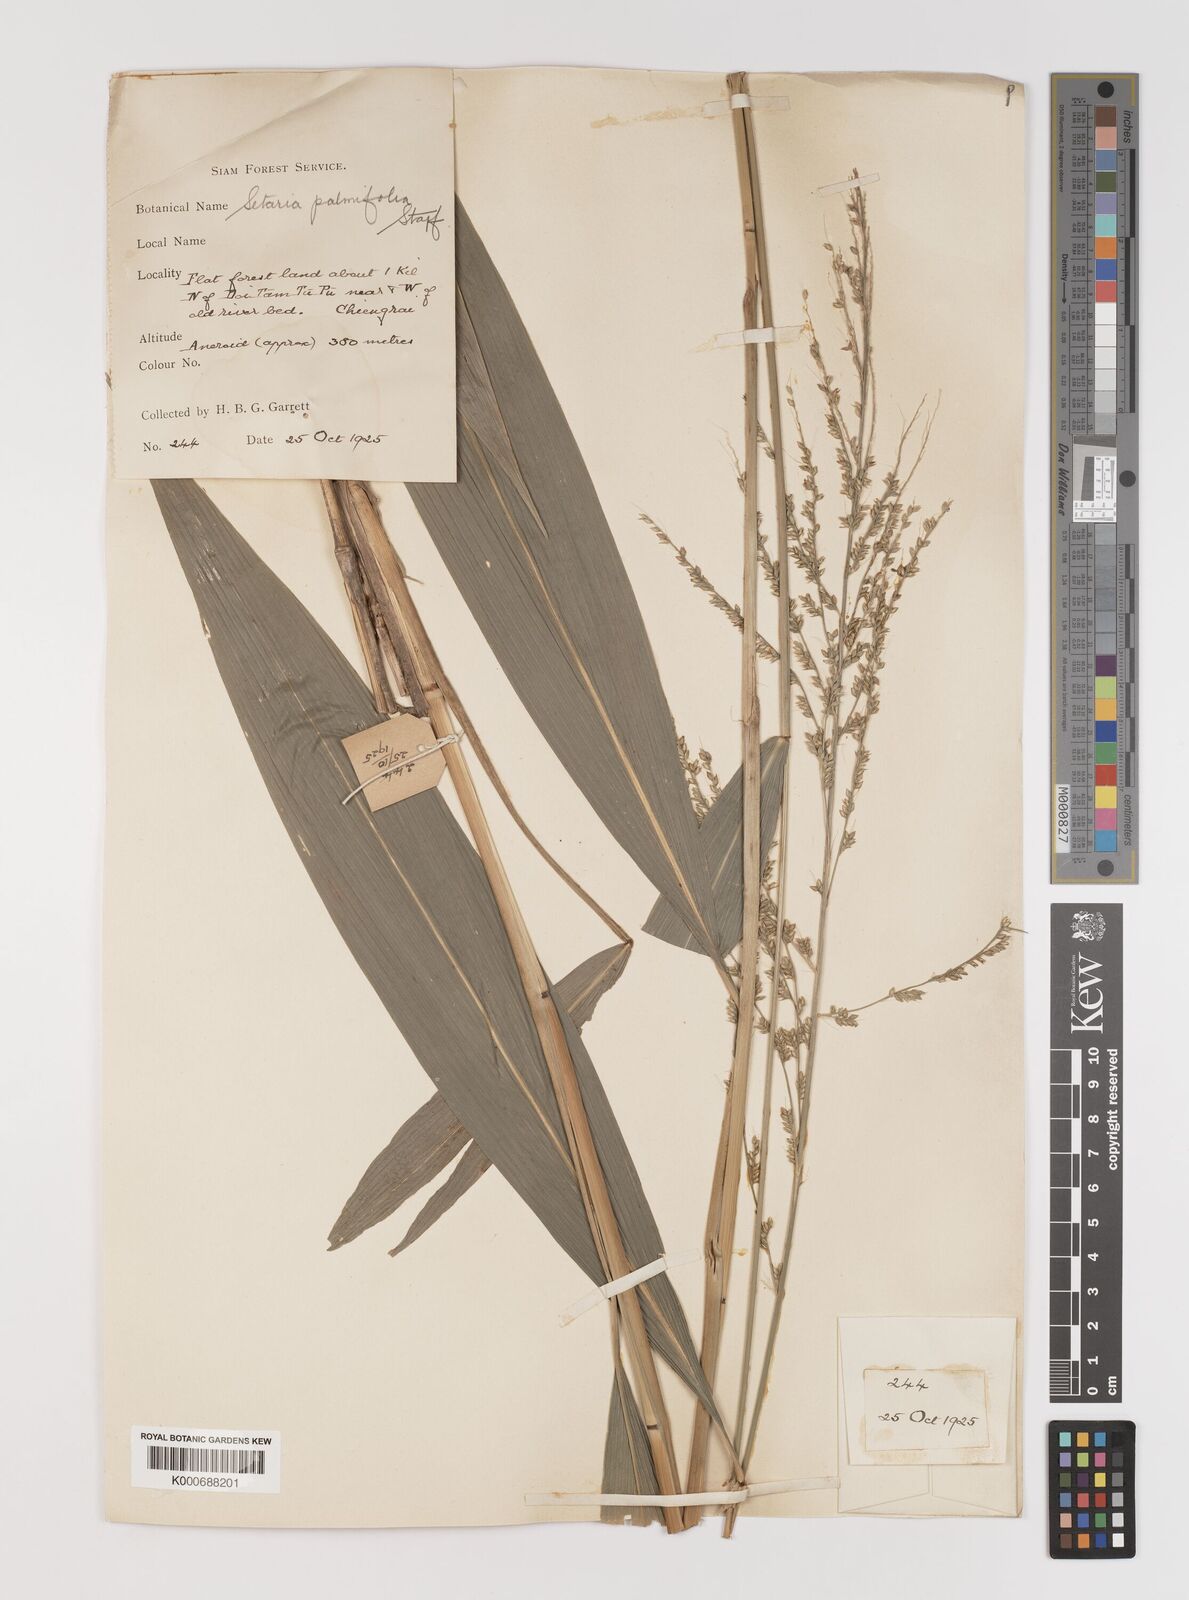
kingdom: Plantae
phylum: Tracheophyta
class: Liliopsida
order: Poales
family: Poaceae
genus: Setaria
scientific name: Setaria palmifolia
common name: Broadleaved bristlegrass
